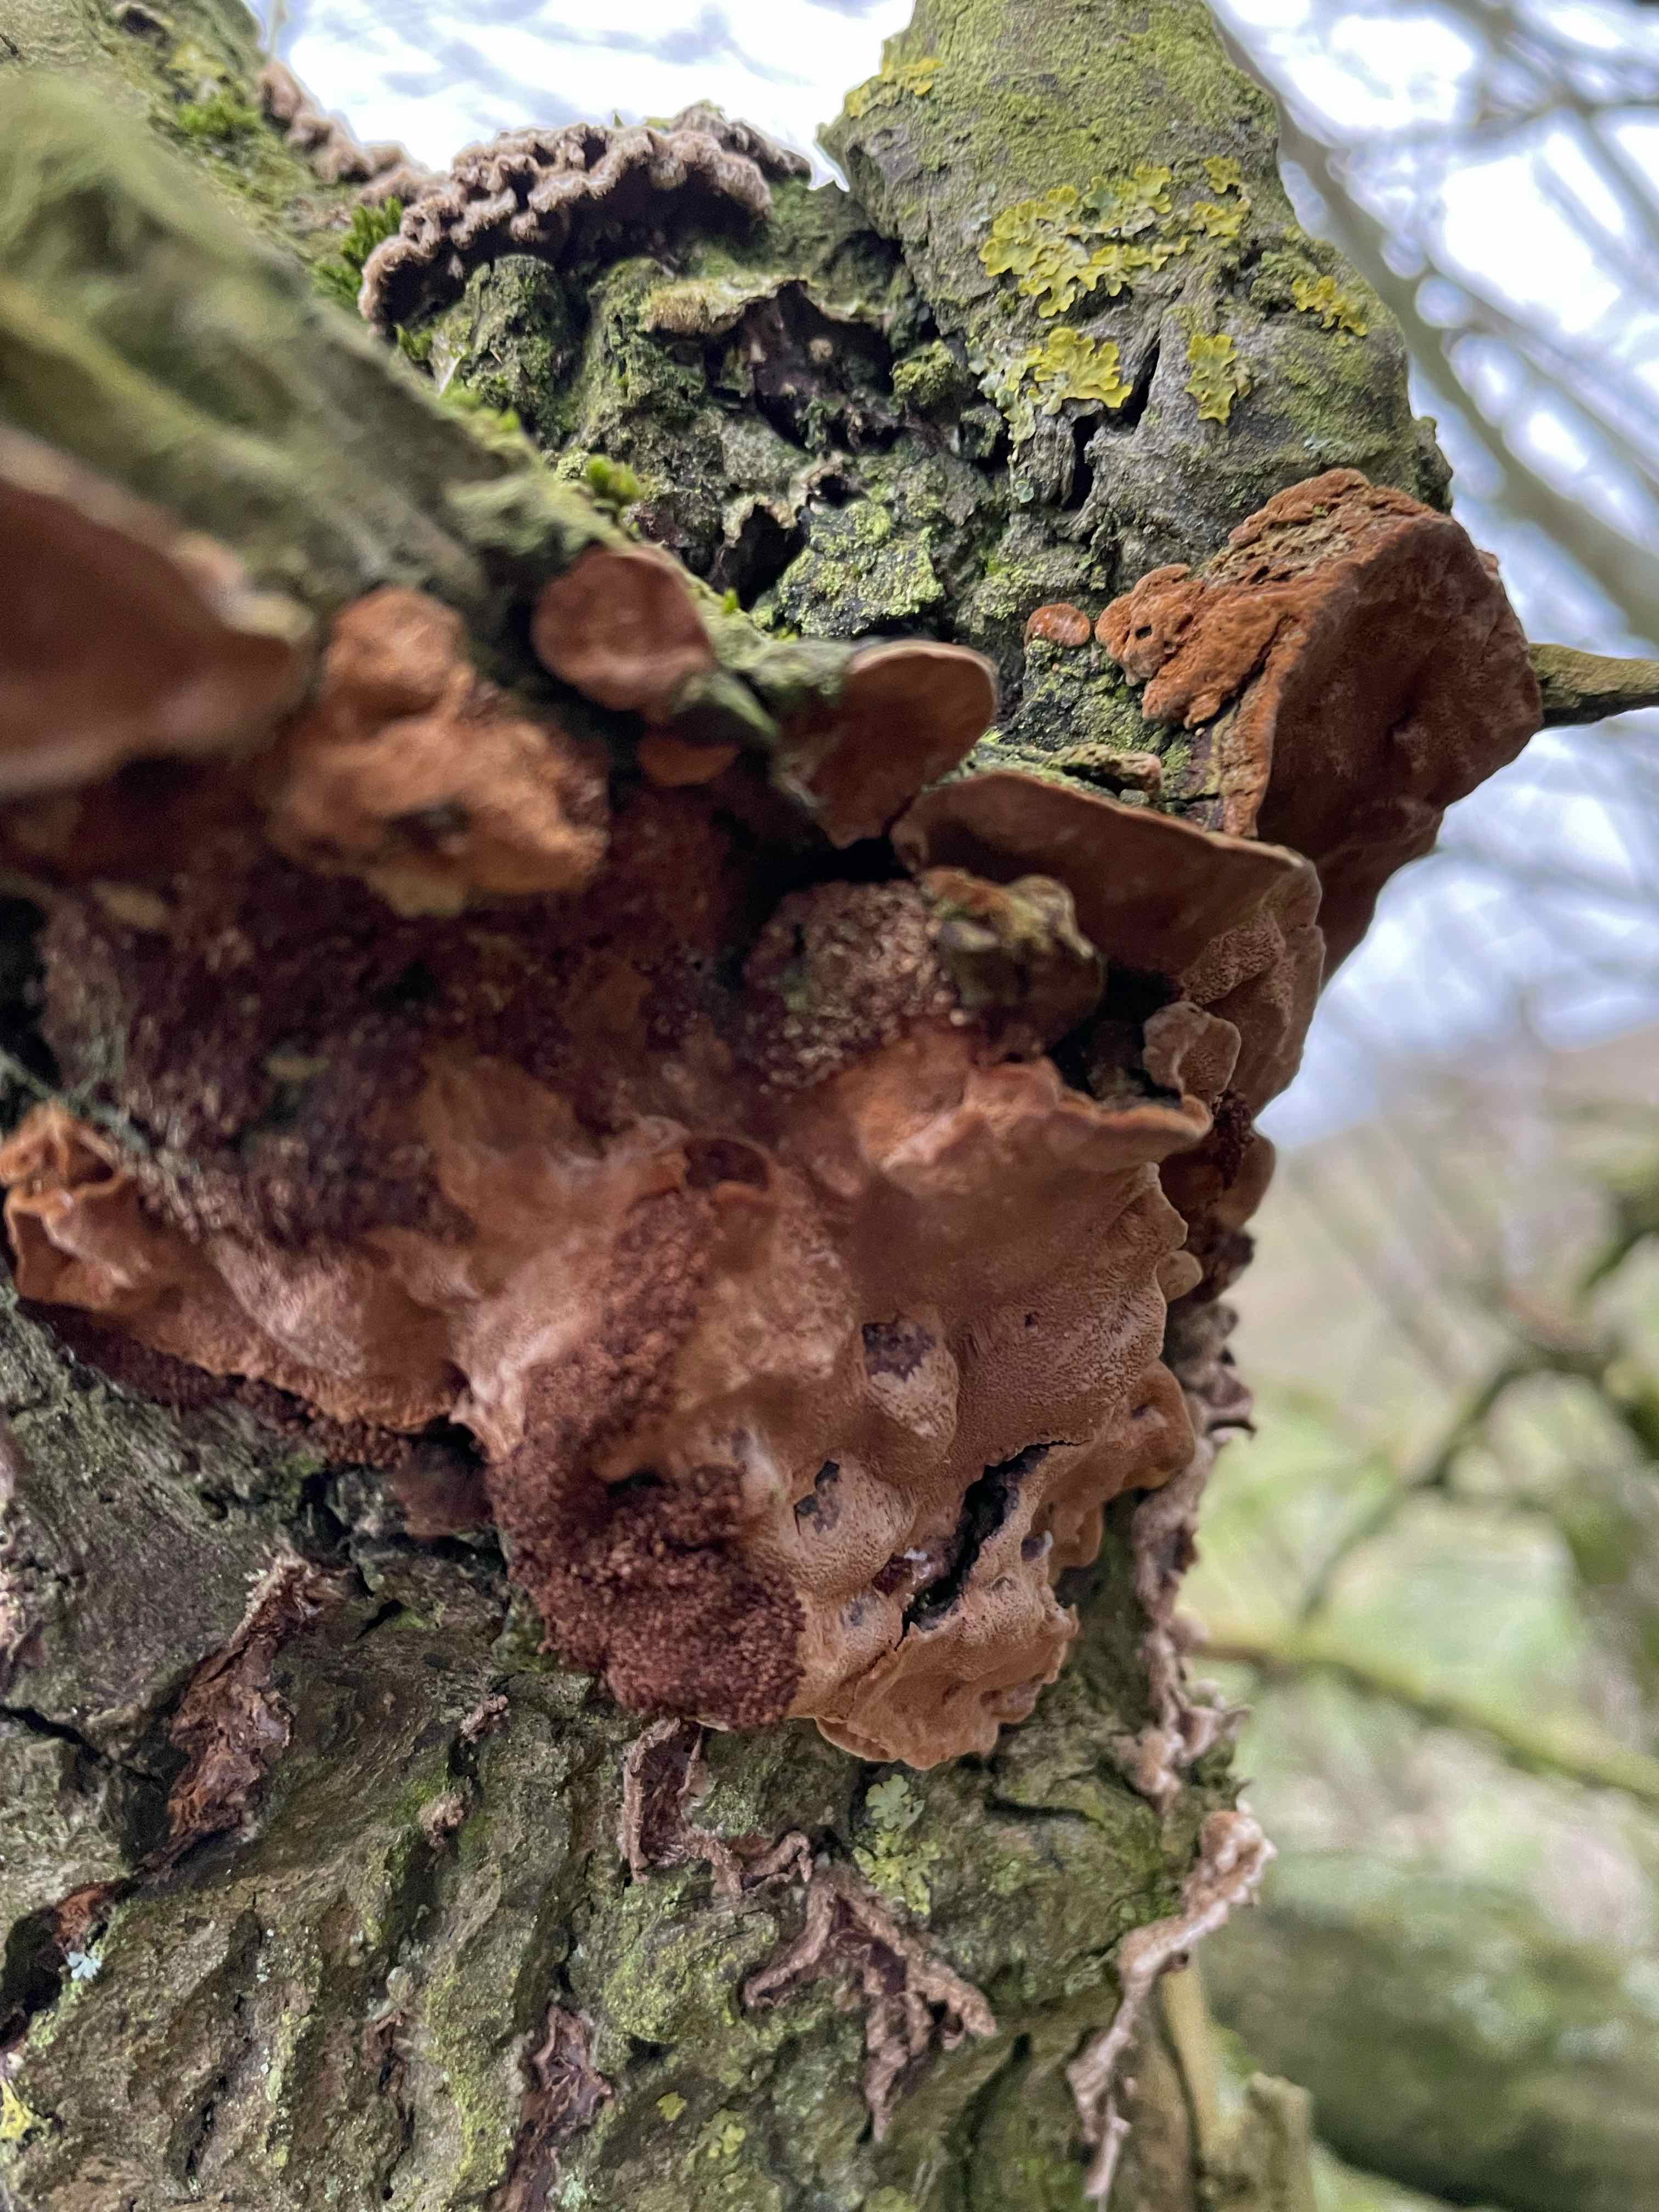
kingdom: Fungi
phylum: Basidiomycota
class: Agaricomycetes
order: Hymenochaetales
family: Hymenochaetaceae
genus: Phellinopsis
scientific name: Phellinopsis conchata
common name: pile-ildporesvamp
